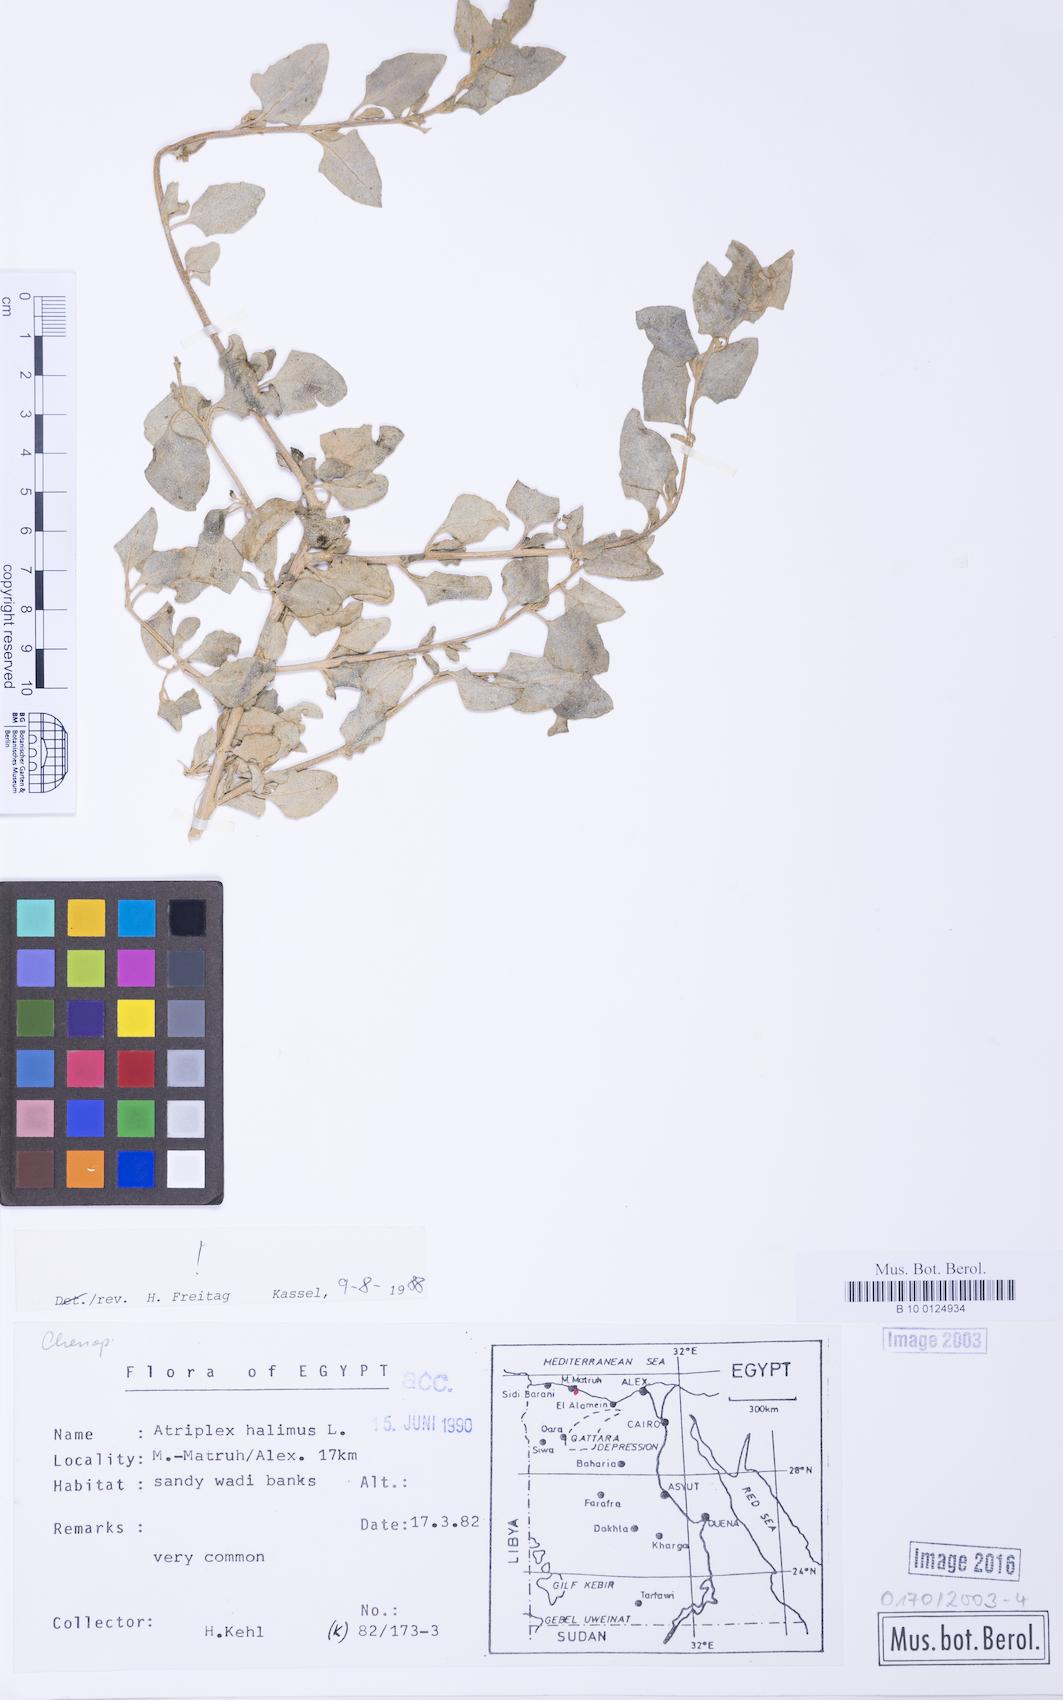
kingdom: Plantae
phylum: Tracheophyta
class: Magnoliopsida
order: Caryophyllales
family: Amaranthaceae
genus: Atriplex
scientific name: Atriplex halimus
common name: Shrubby orache
